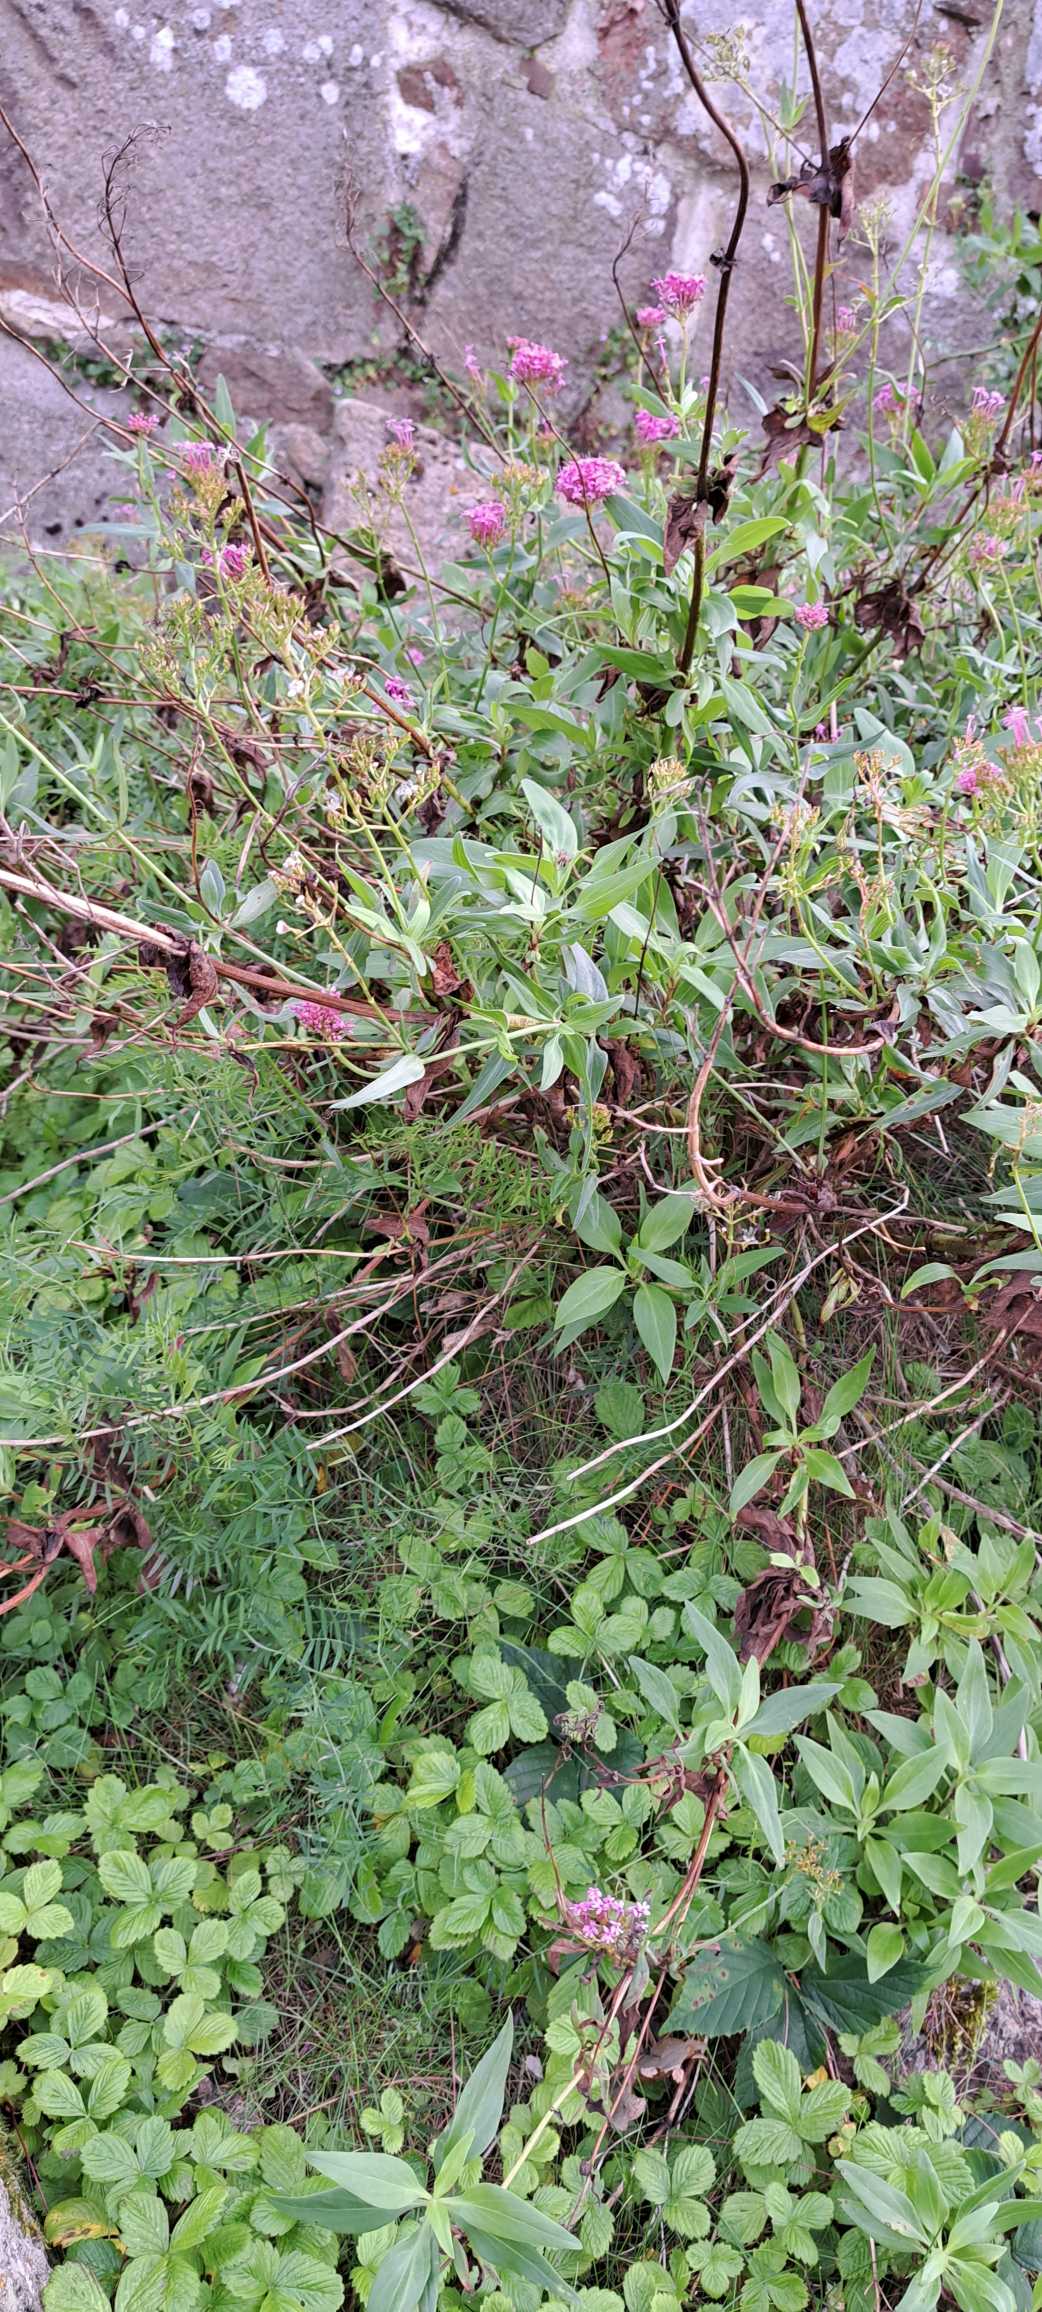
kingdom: Plantae
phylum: Tracheophyta
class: Magnoliopsida
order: Dipsacales
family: Caprifoliaceae
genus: Centranthus
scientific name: Centranthus ruber
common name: Sporebaldrian
